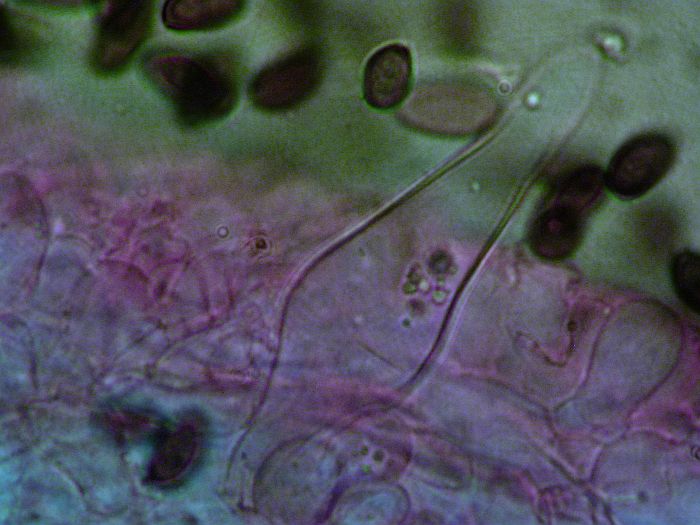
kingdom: Fungi
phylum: Basidiomycota
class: Agaricomycetes
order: Agaricales
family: Psathyrellaceae
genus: Psathyrella
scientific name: Psathyrella pennata
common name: kul-mørkhat
